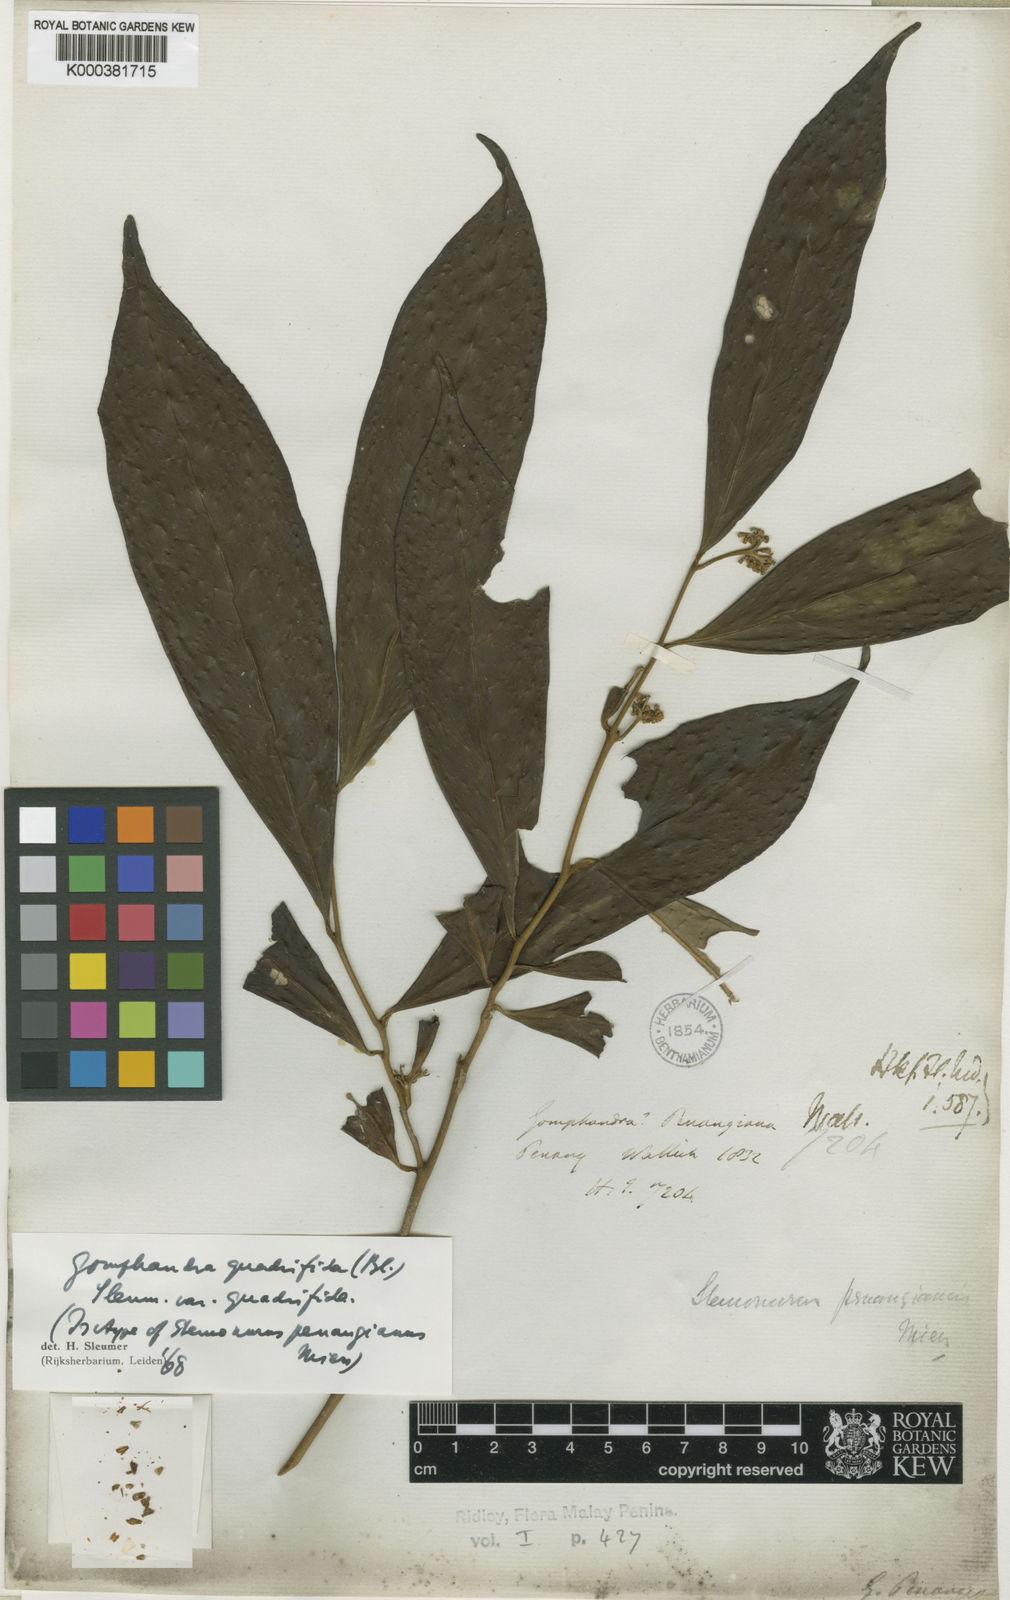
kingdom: Plantae
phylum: Tracheophyta
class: Magnoliopsida
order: Cardiopteridales
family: Stemonuraceae
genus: Gomphandra
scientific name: Gomphandra quadrifida
